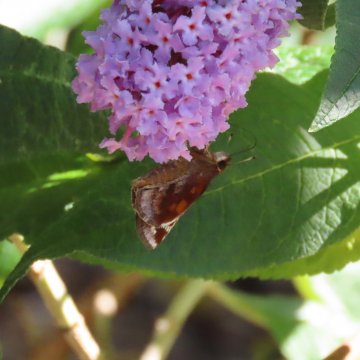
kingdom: Animalia
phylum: Arthropoda
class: Insecta
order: Lepidoptera
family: Hesperiidae
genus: Lon
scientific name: Lon zabulon
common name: Zabulon Skipper
